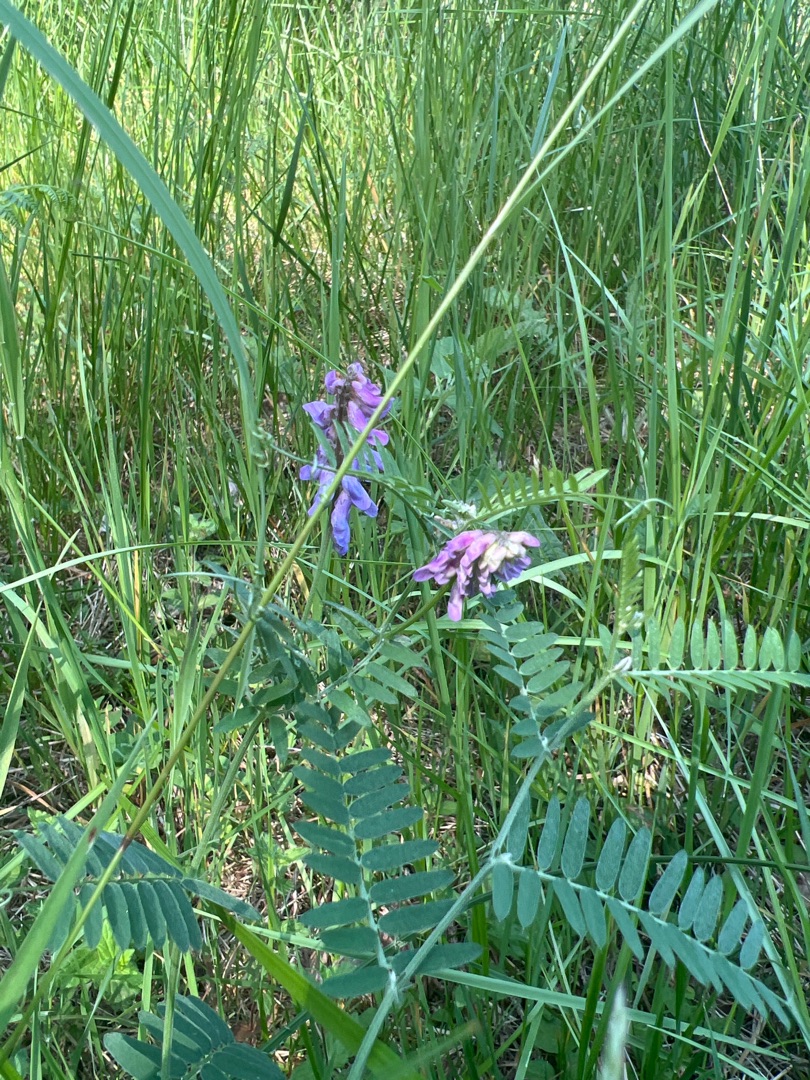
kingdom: Plantae
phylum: Tracheophyta
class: Magnoliopsida
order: Fabales
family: Fabaceae
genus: Vicia
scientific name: Vicia cracca
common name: Muse-vikke
